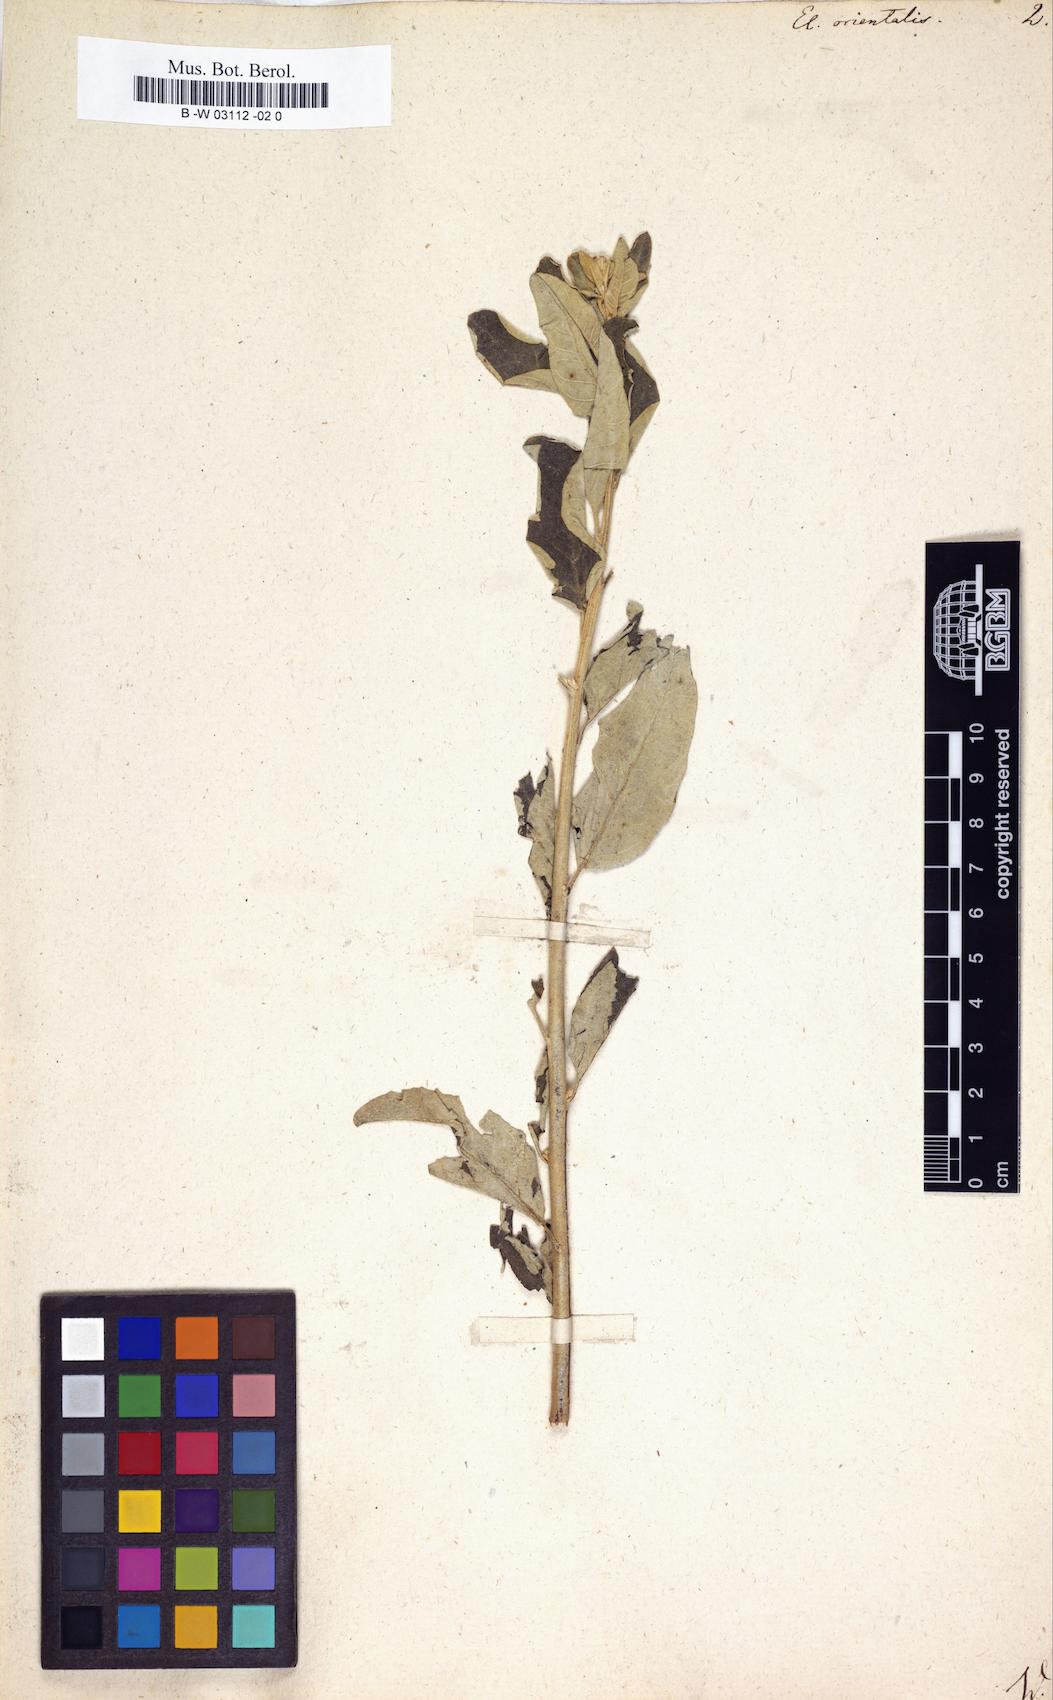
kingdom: Plantae
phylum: Tracheophyta
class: Magnoliopsida
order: Rosales
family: Elaeagnaceae
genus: Elaeagnus
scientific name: Elaeagnus angustifolia
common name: Russian olive
